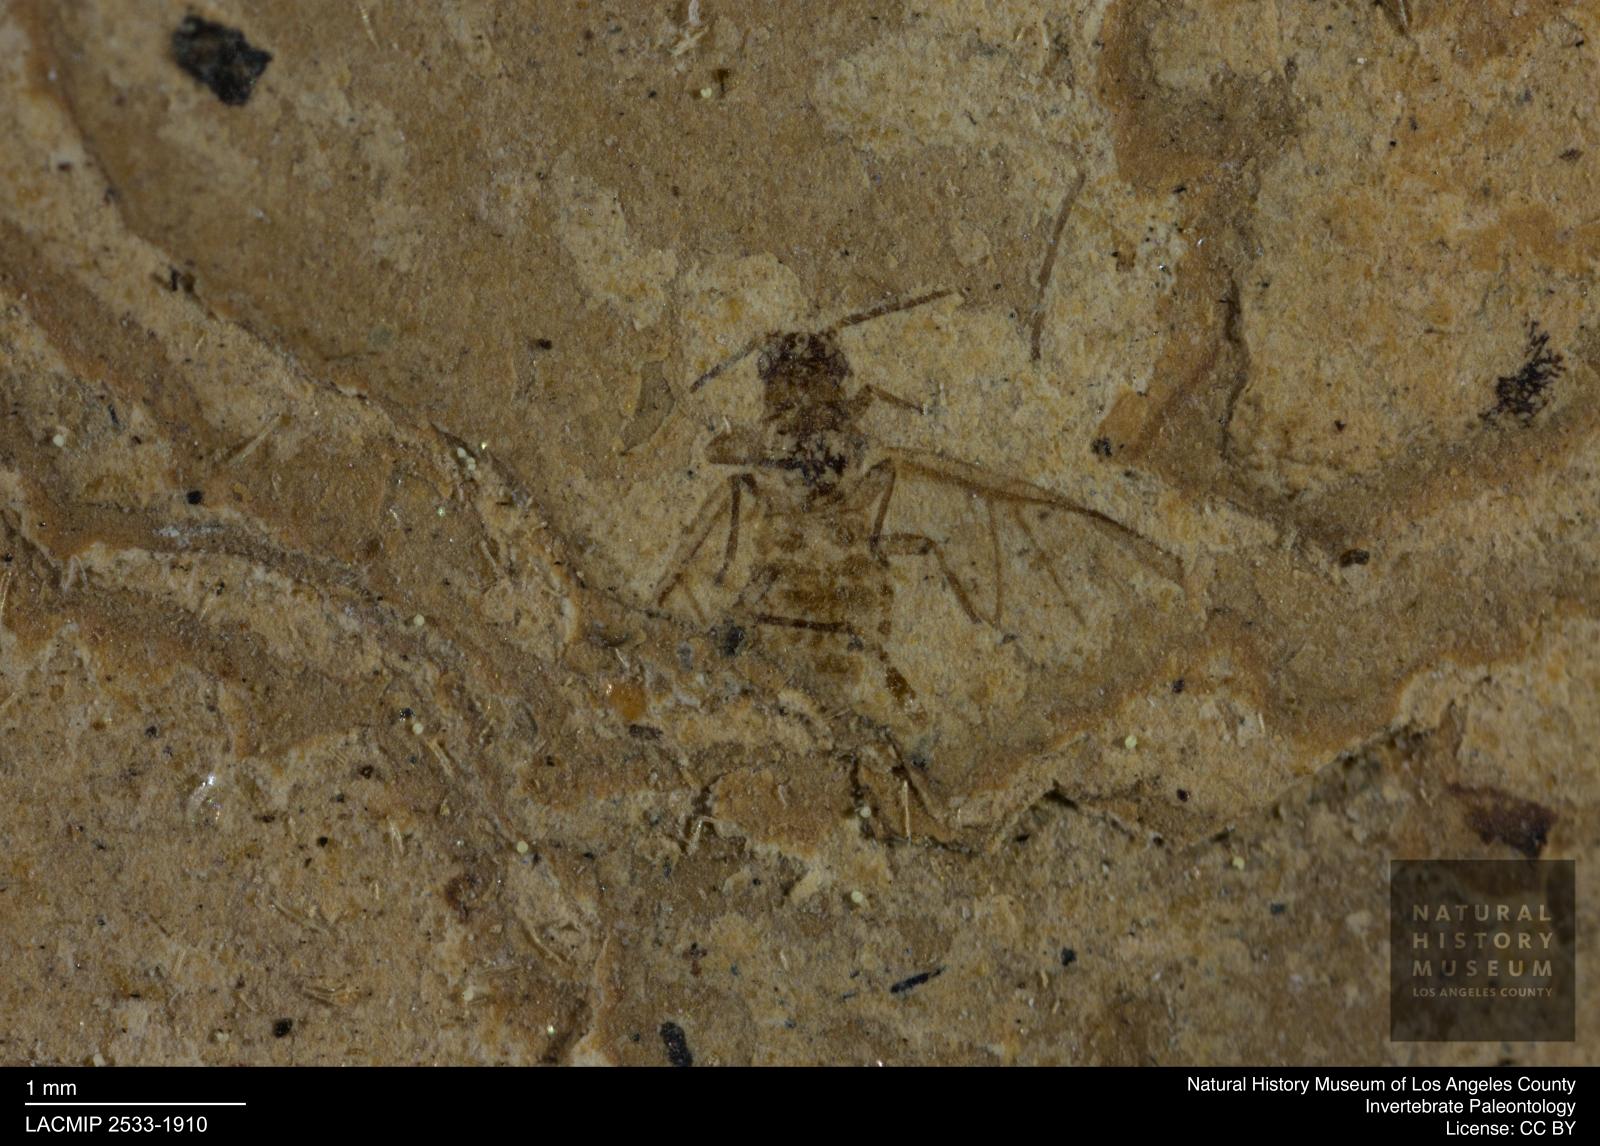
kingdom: Animalia
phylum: Arthropoda
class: Insecta
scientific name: Insecta
